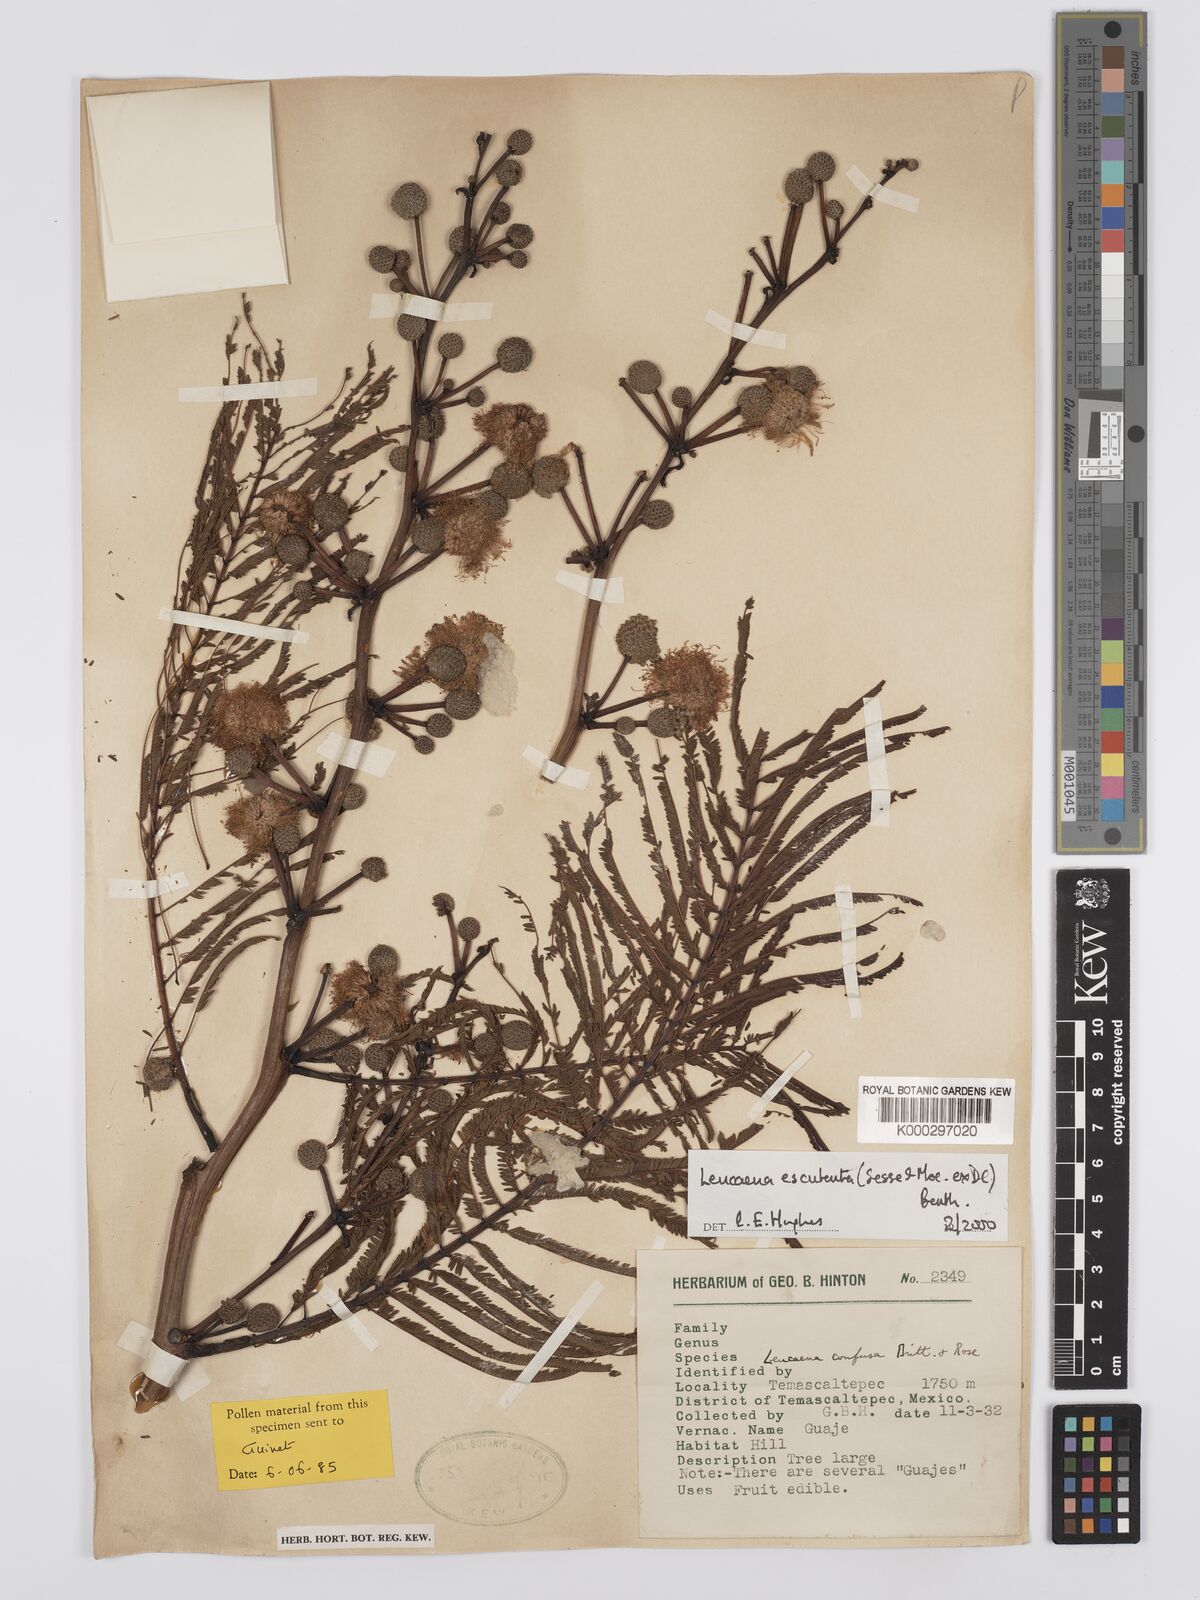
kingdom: Plantae
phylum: Tracheophyta
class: Magnoliopsida
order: Fabales
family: Fabaceae
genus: Leucaena
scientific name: Leucaena esculenta
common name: Guaje
